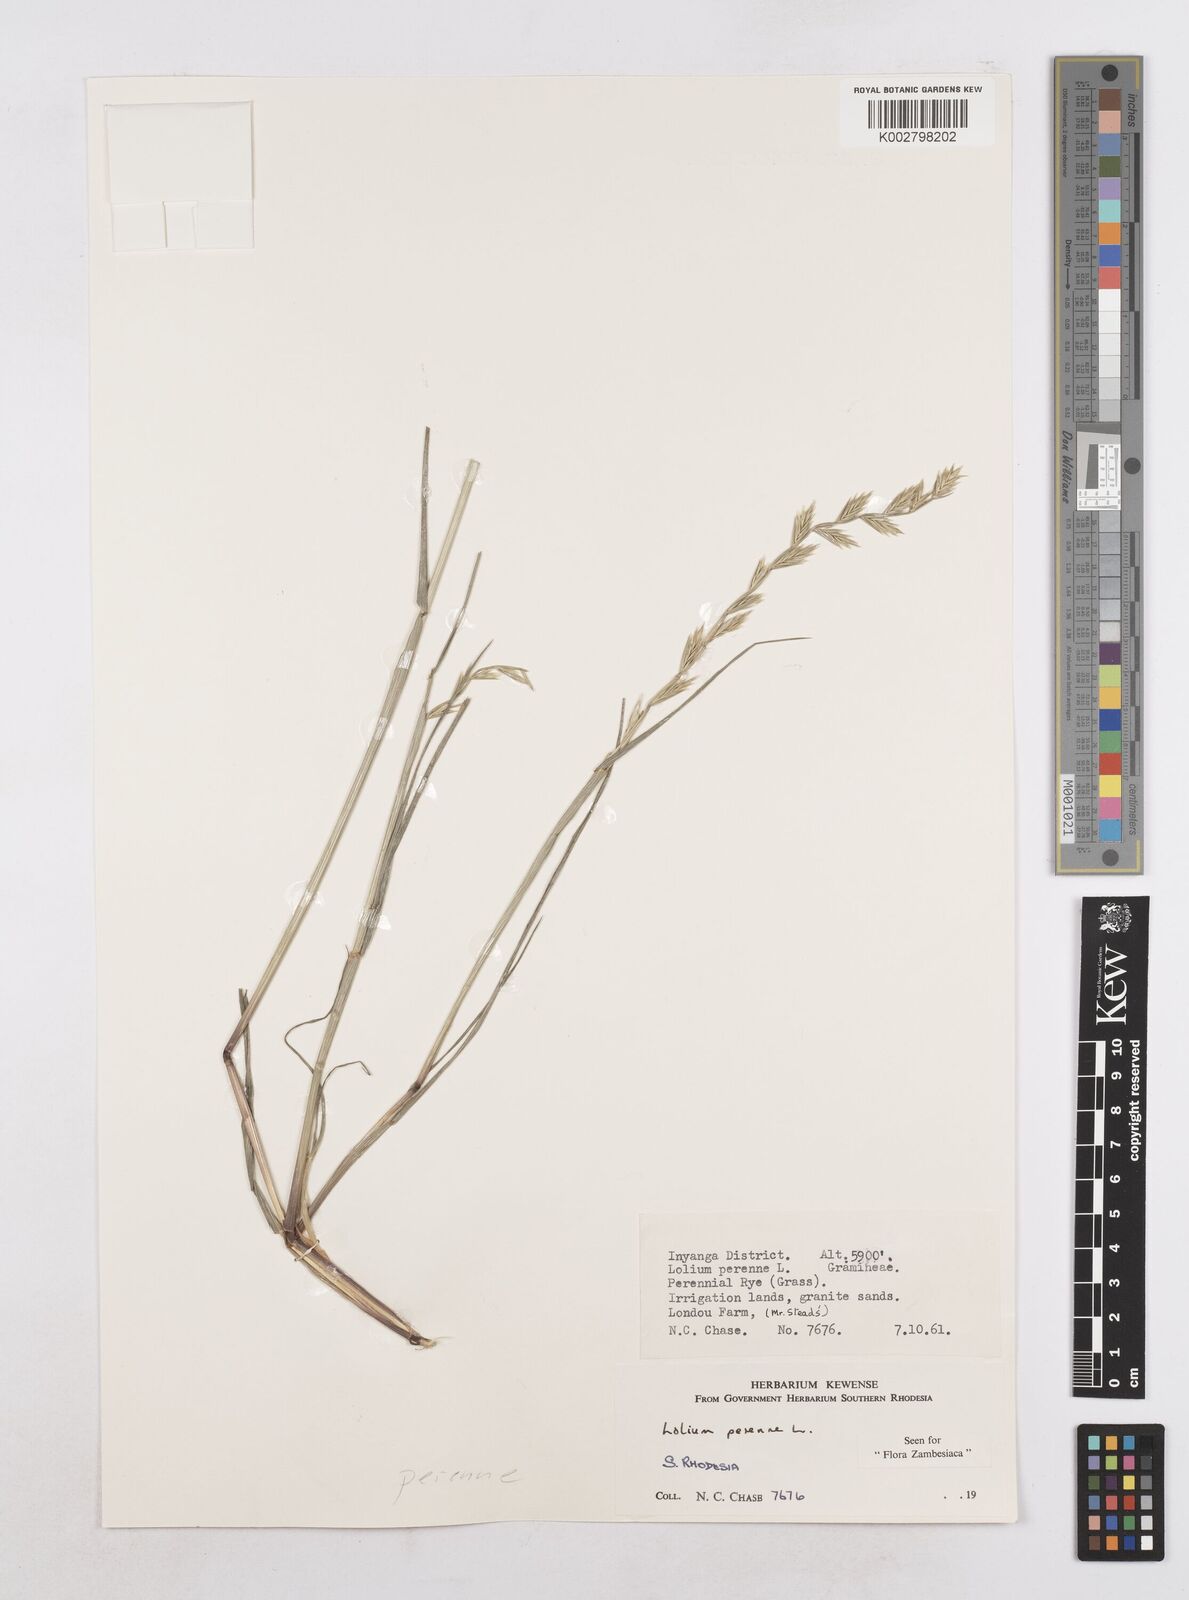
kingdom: Plantae
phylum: Tracheophyta
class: Liliopsida
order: Poales
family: Poaceae
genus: Lolium
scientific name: Lolium perenne
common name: Perennial ryegrass
